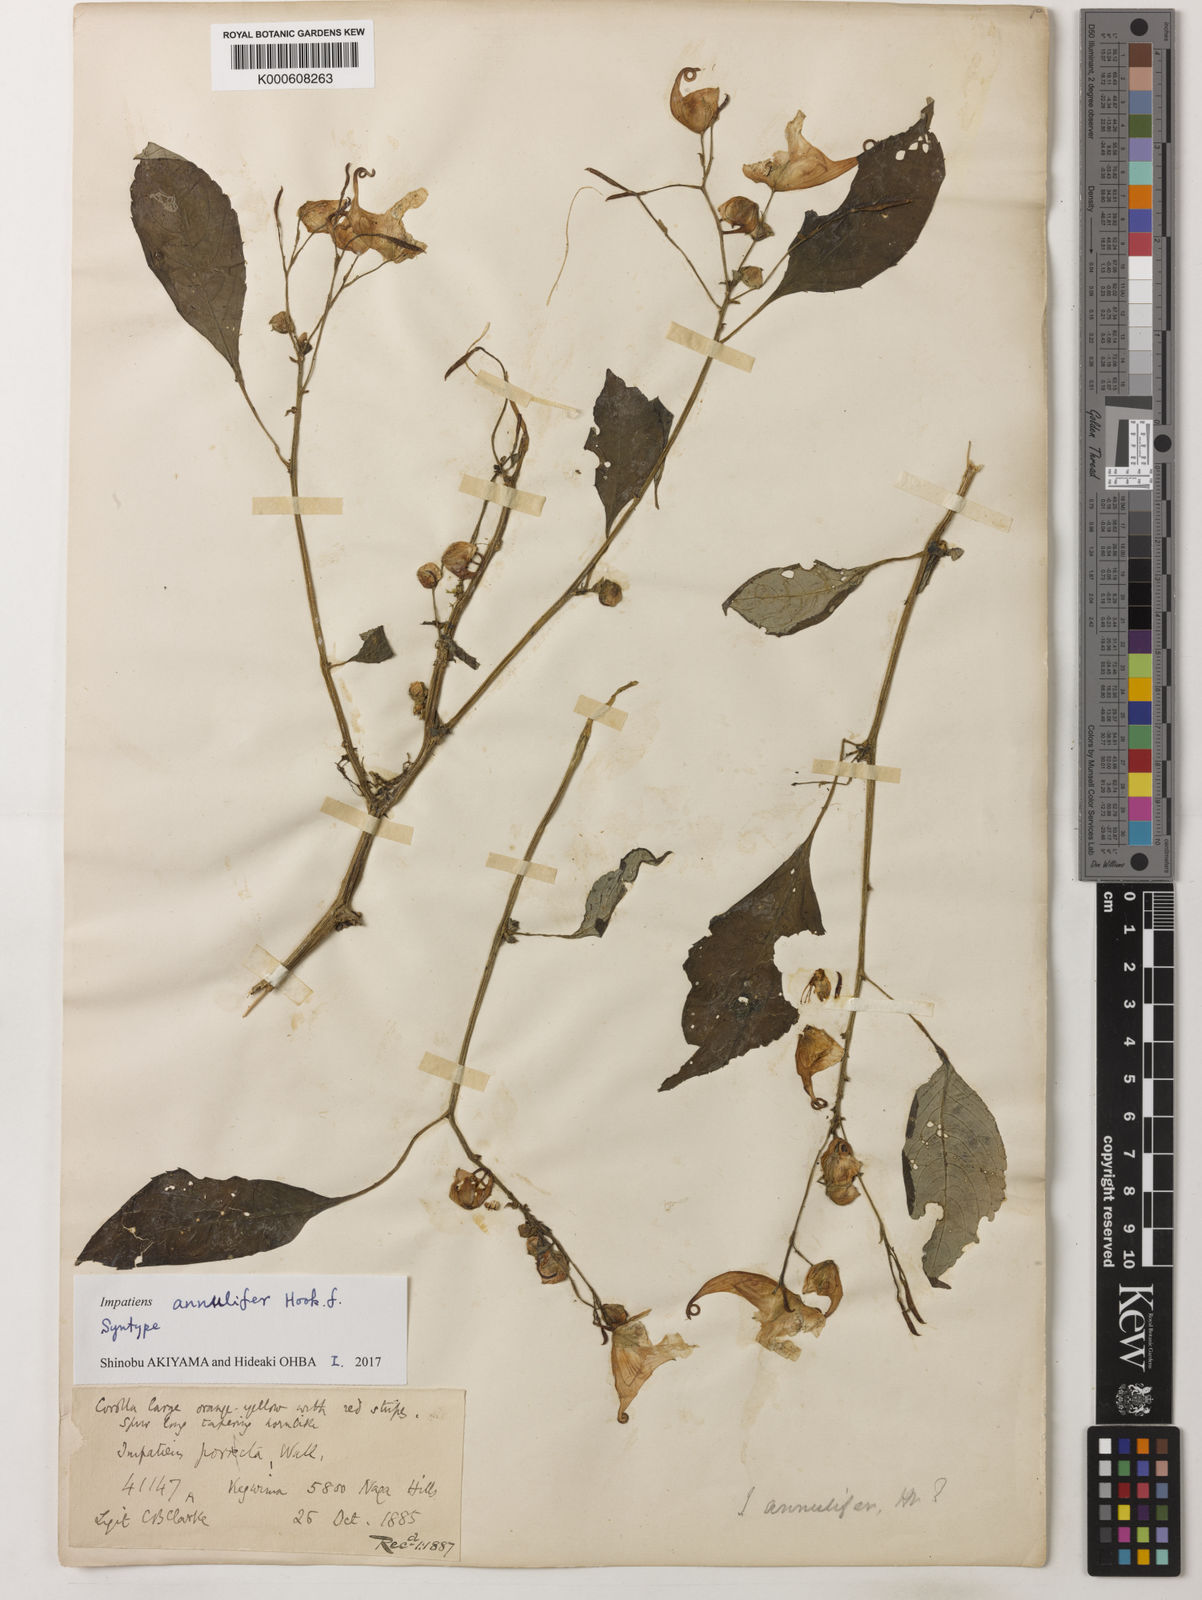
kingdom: Plantae
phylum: Tracheophyta
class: Magnoliopsida
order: Ericales
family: Balsaminaceae
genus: Impatiens
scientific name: Impatiens pulchra
